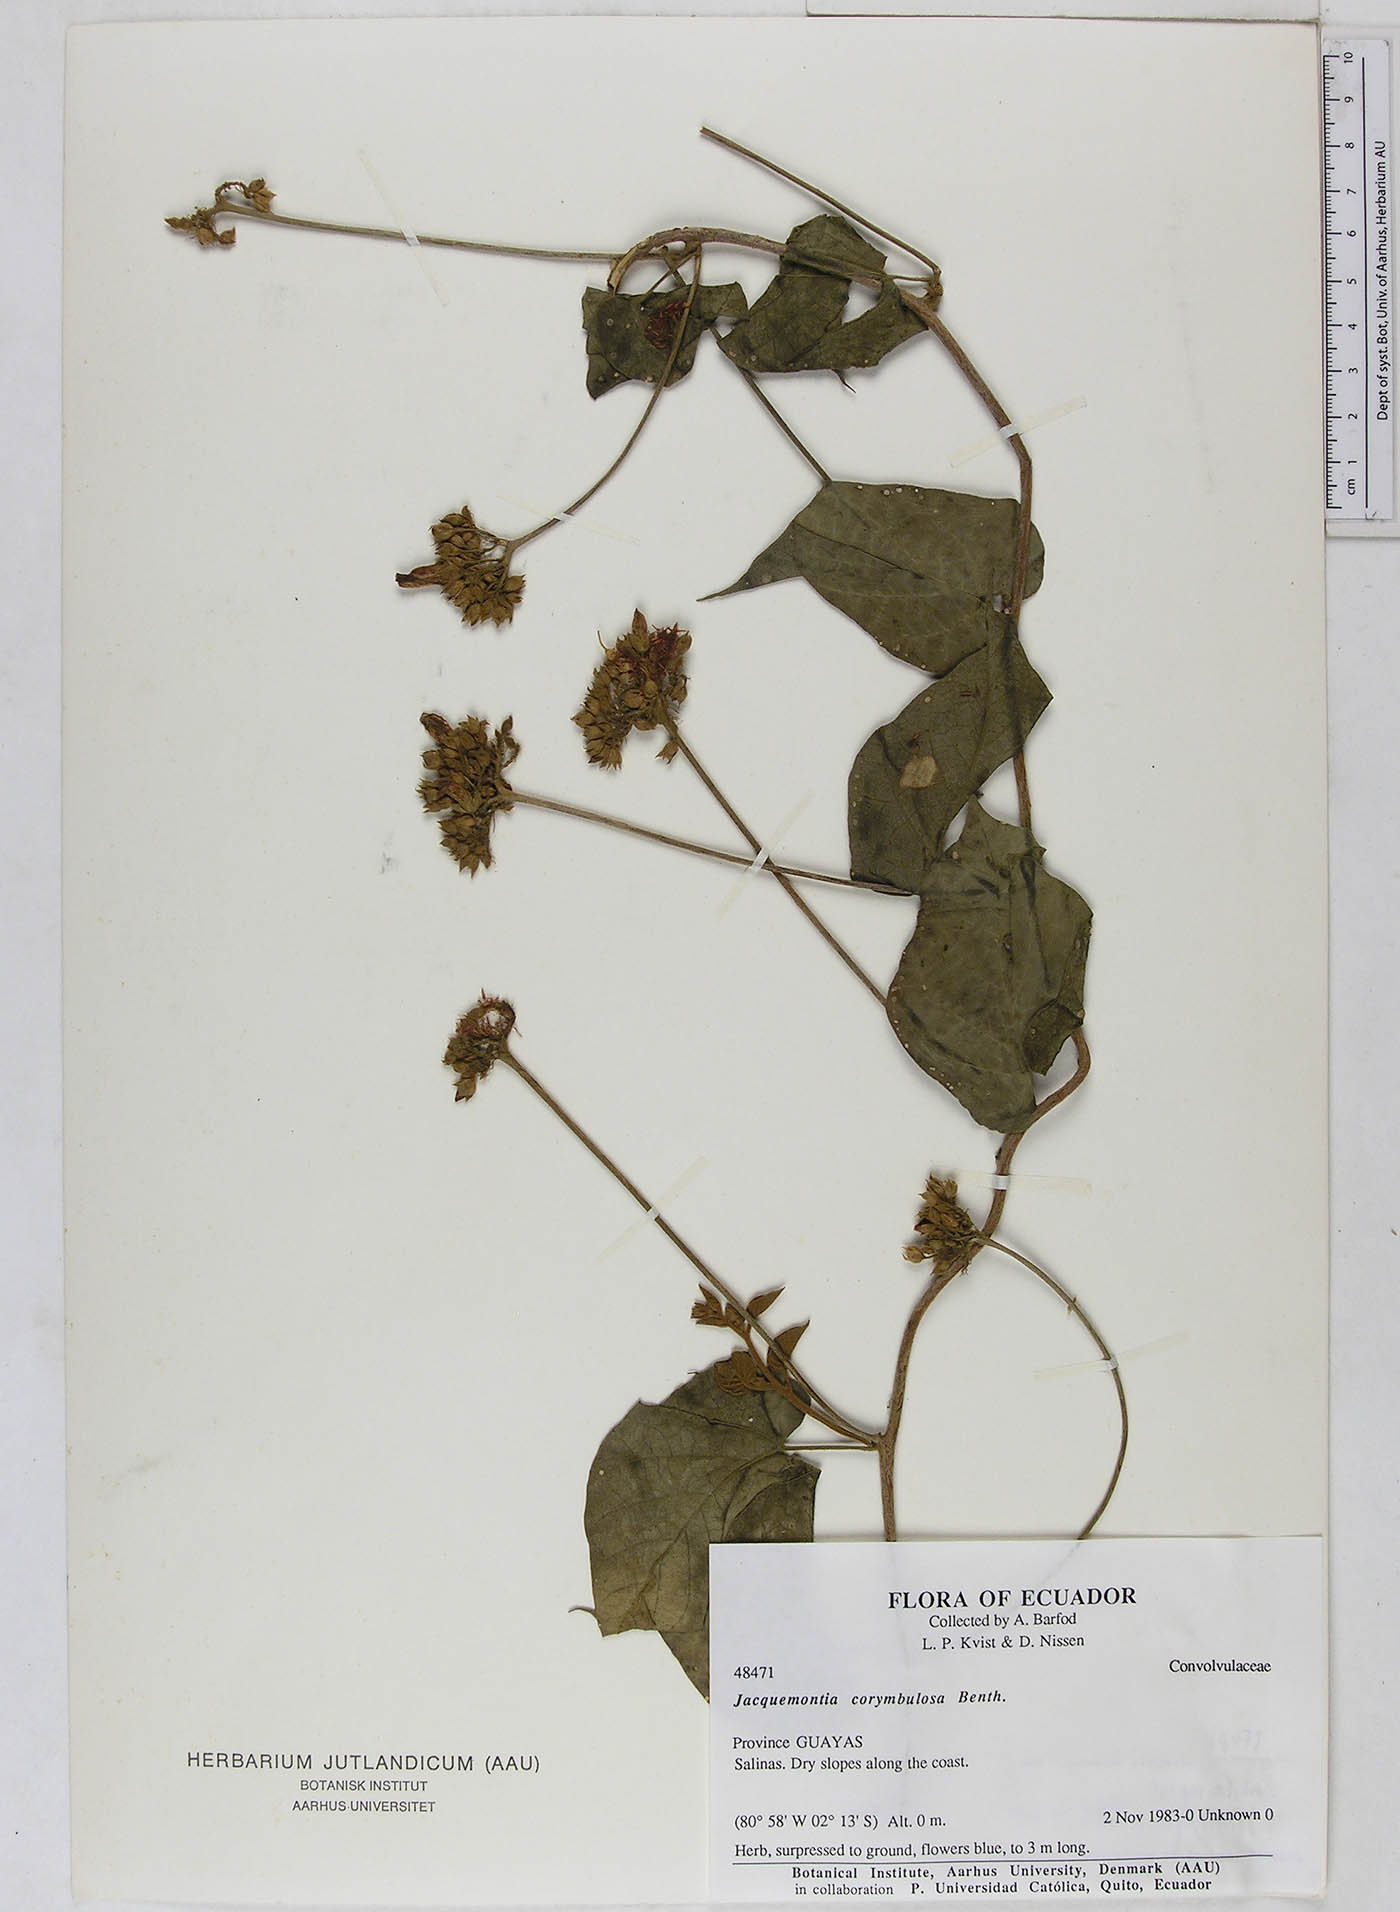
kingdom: Plantae
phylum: Tracheophyta
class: Magnoliopsida
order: Solanales
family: Convolvulaceae
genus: Jacquemontia
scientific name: Jacquemontia corymbulosa
